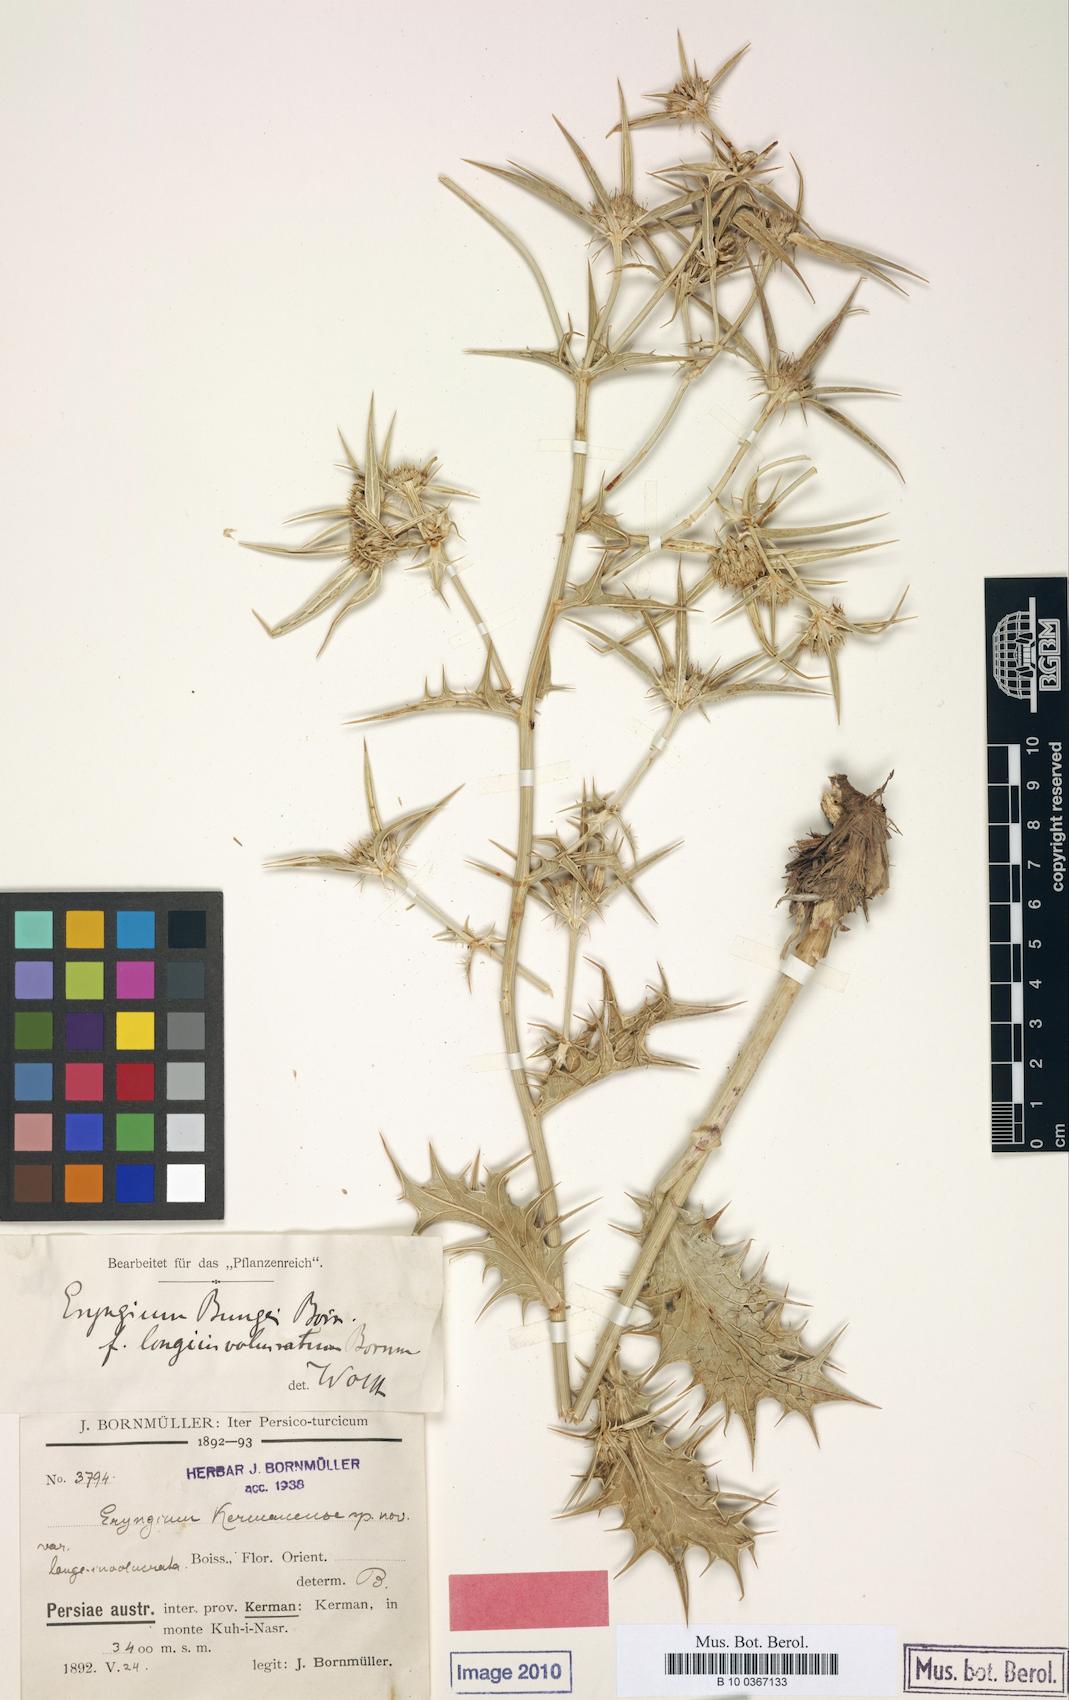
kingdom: Plantae
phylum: Tracheophyta
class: Magnoliopsida
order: Apiales
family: Apiaceae
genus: Eryngium
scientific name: Eryngium bungei
